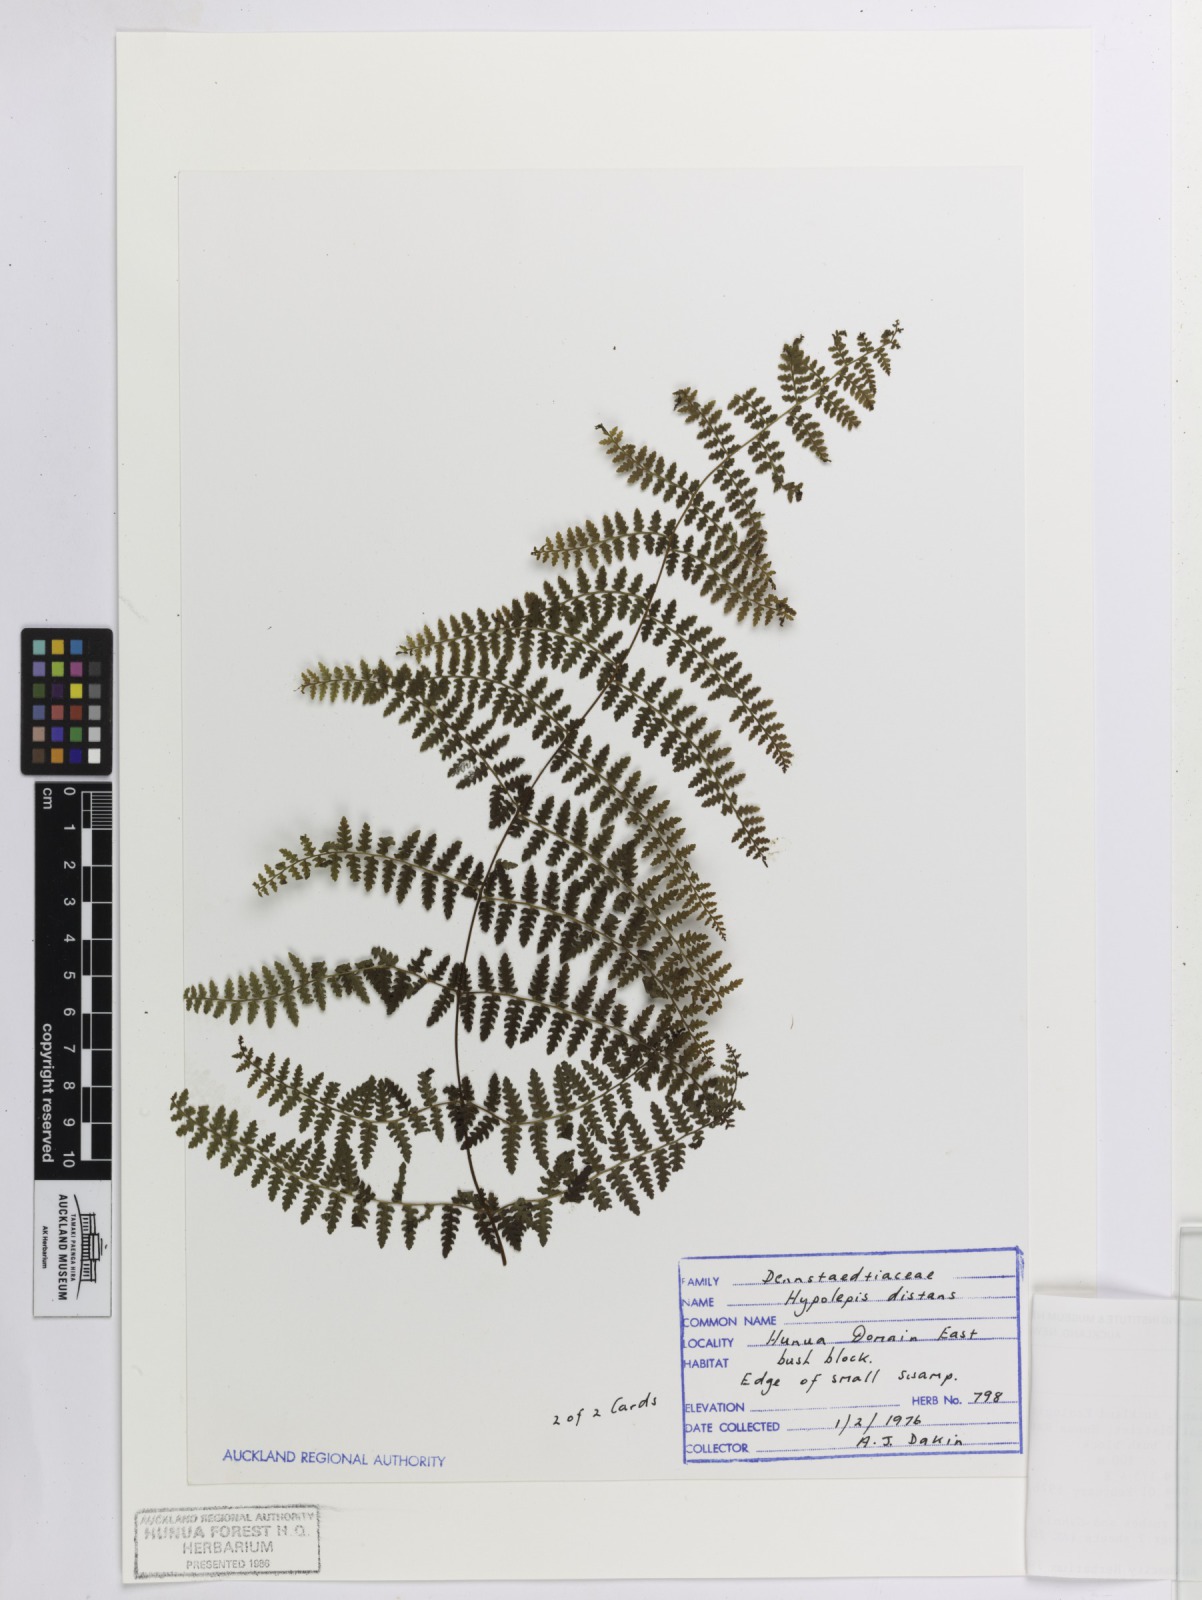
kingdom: Plantae
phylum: Tracheophyta
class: Polypodiopsida
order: Polypodiales
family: Dennstaedtiaceae
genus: Hiya
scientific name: Hiya distans
